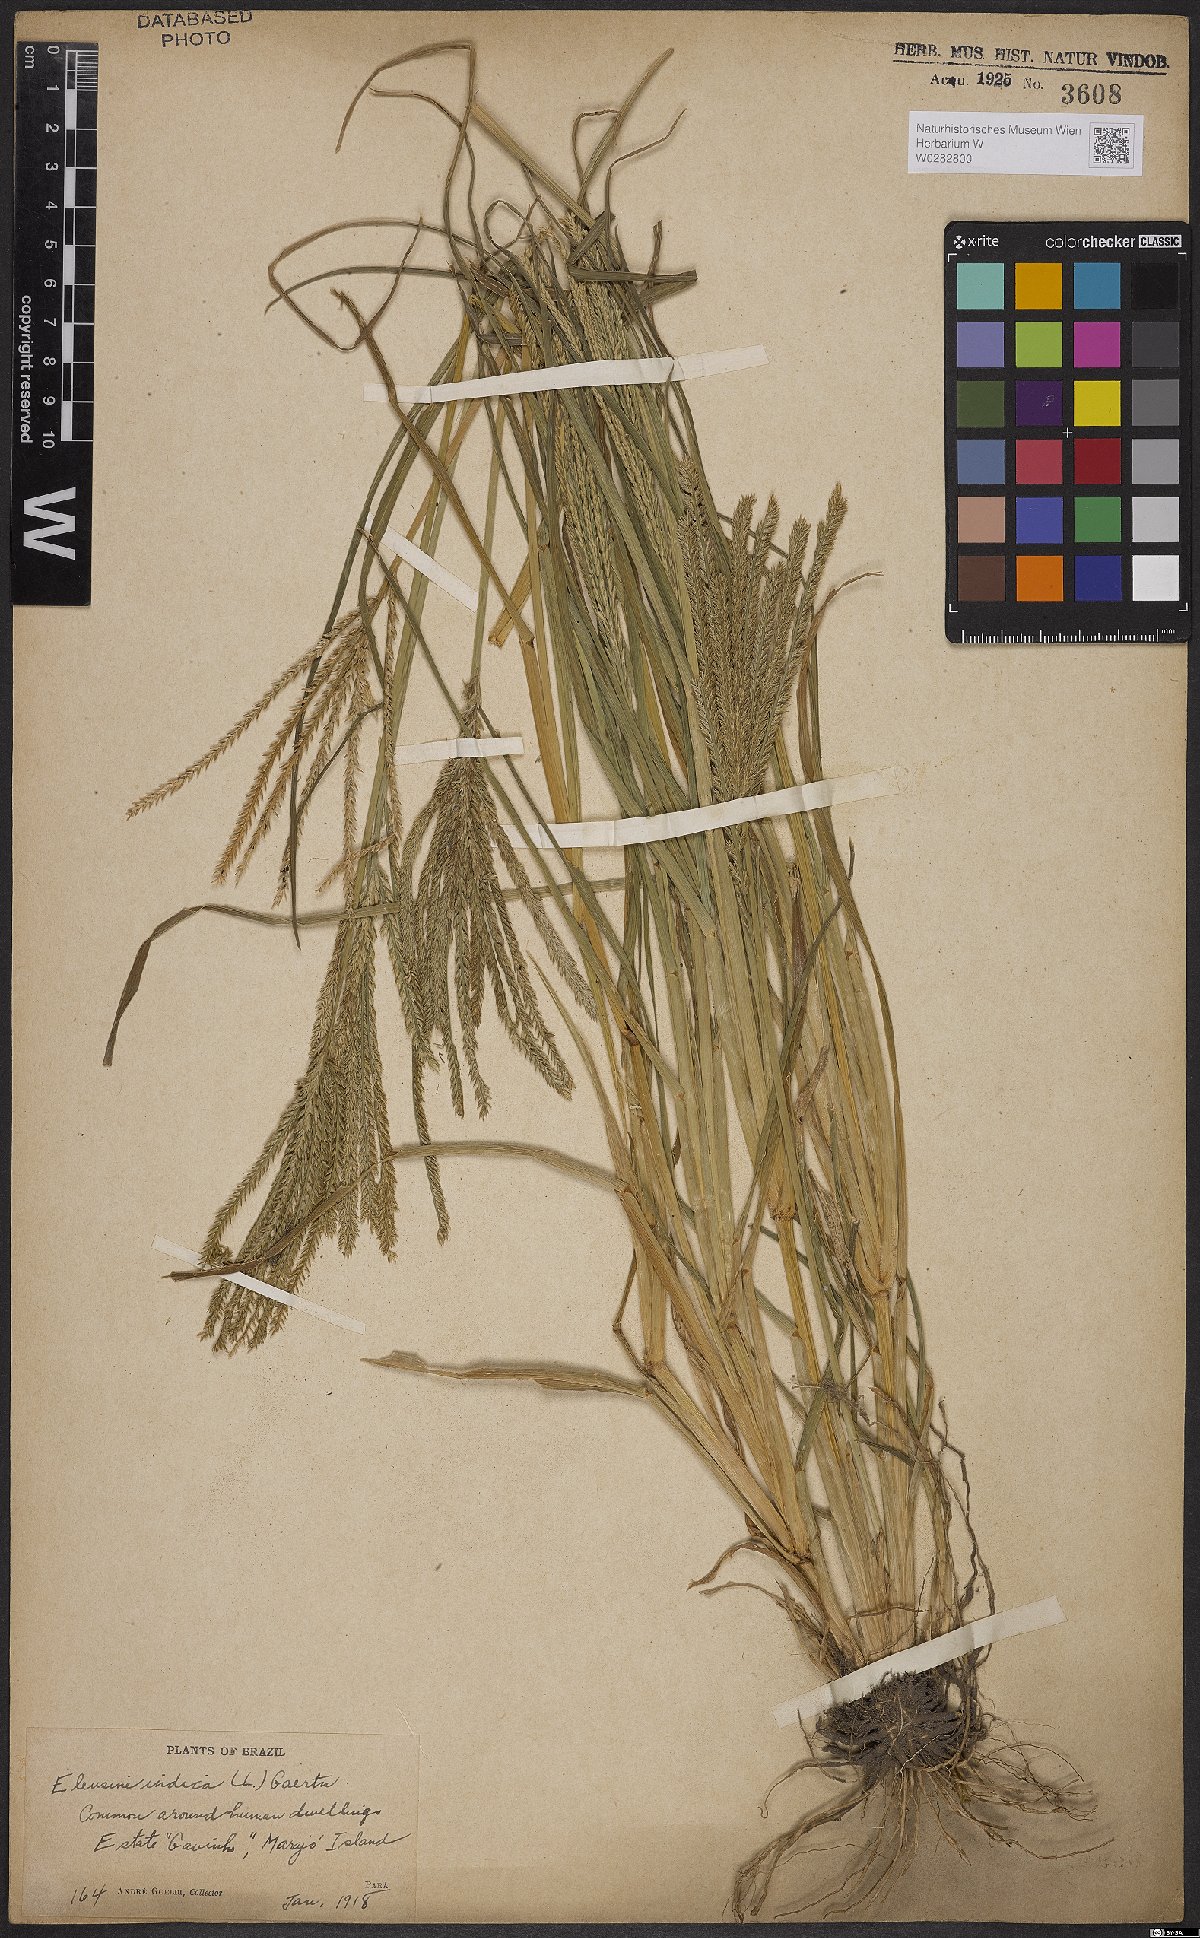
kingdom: Plantae
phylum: Tracheophyta
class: Liliopsida
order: Poales
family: Poaceae
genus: Eleusine
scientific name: Eleusine indica
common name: Yard-grass
